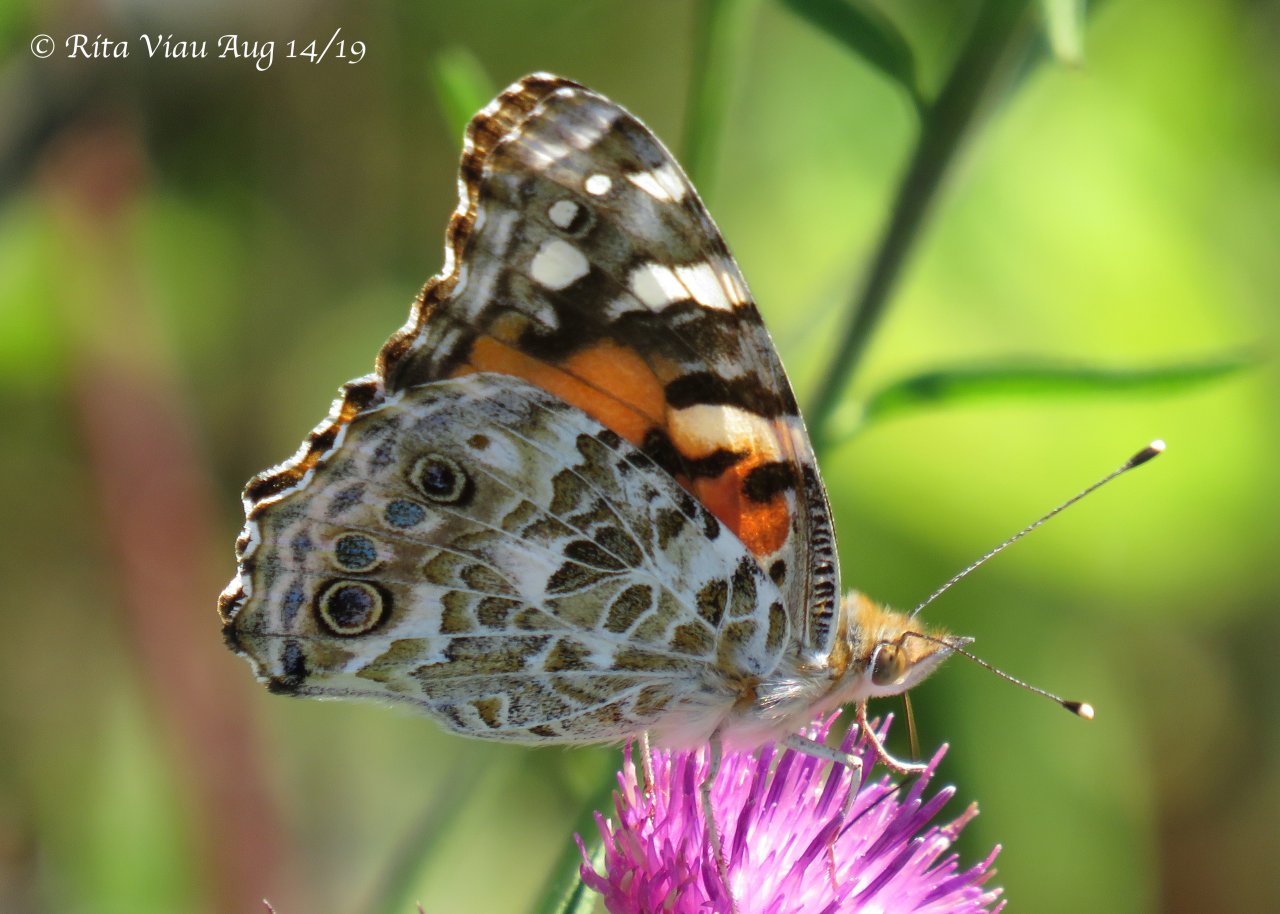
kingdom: Animalia
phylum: Arthropoda
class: Insecta
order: Lepidoptera
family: Nymphalidae
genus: Vanessa
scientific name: Vanessa cardui
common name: Painted Lady
